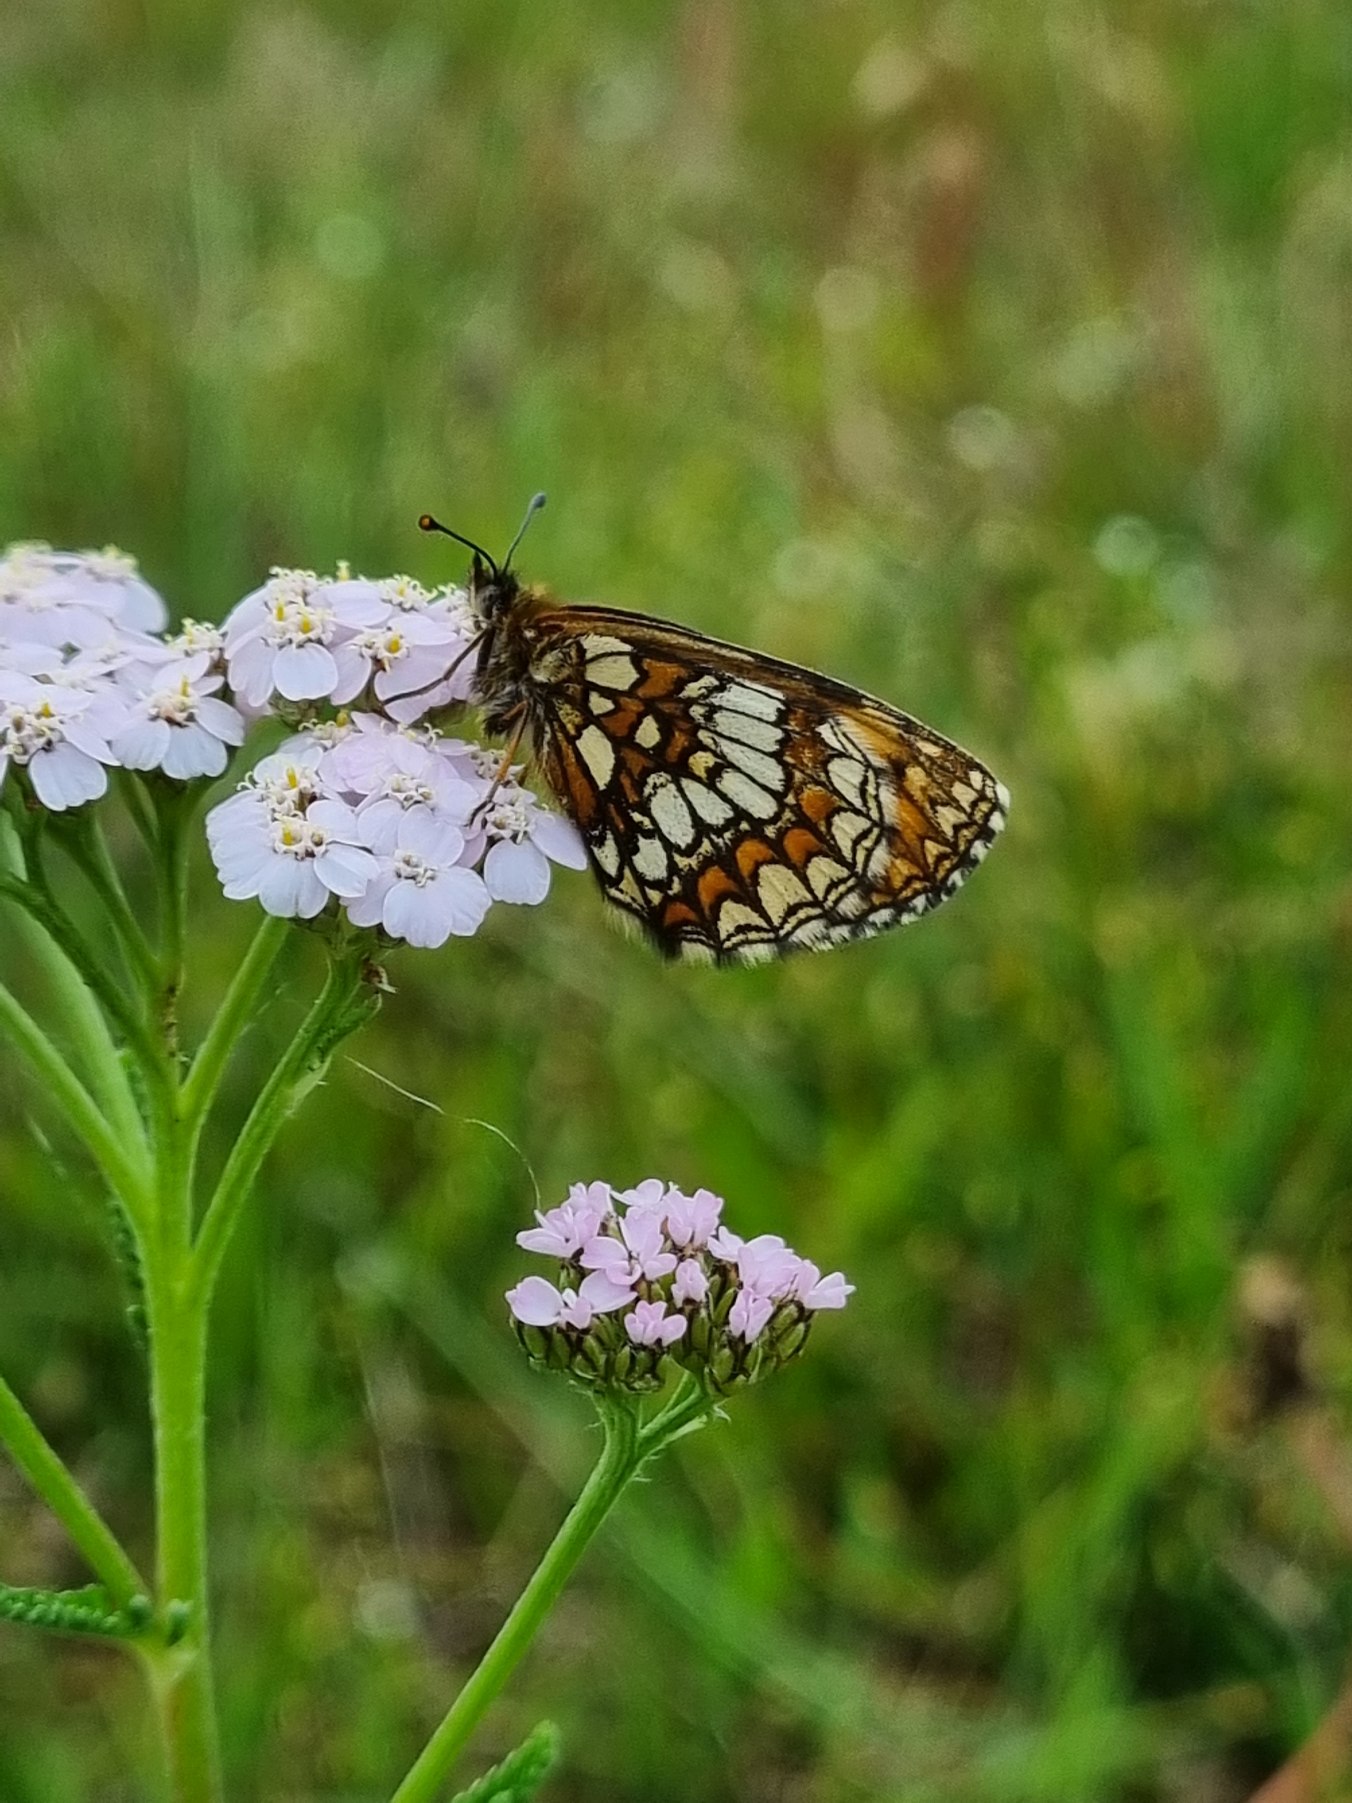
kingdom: Animalia
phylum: Arthropoda
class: Insecta
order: Lepidoptera
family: Nymphalidae
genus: Mellicta
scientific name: Mellicta athalia
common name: Brun pletvinge
